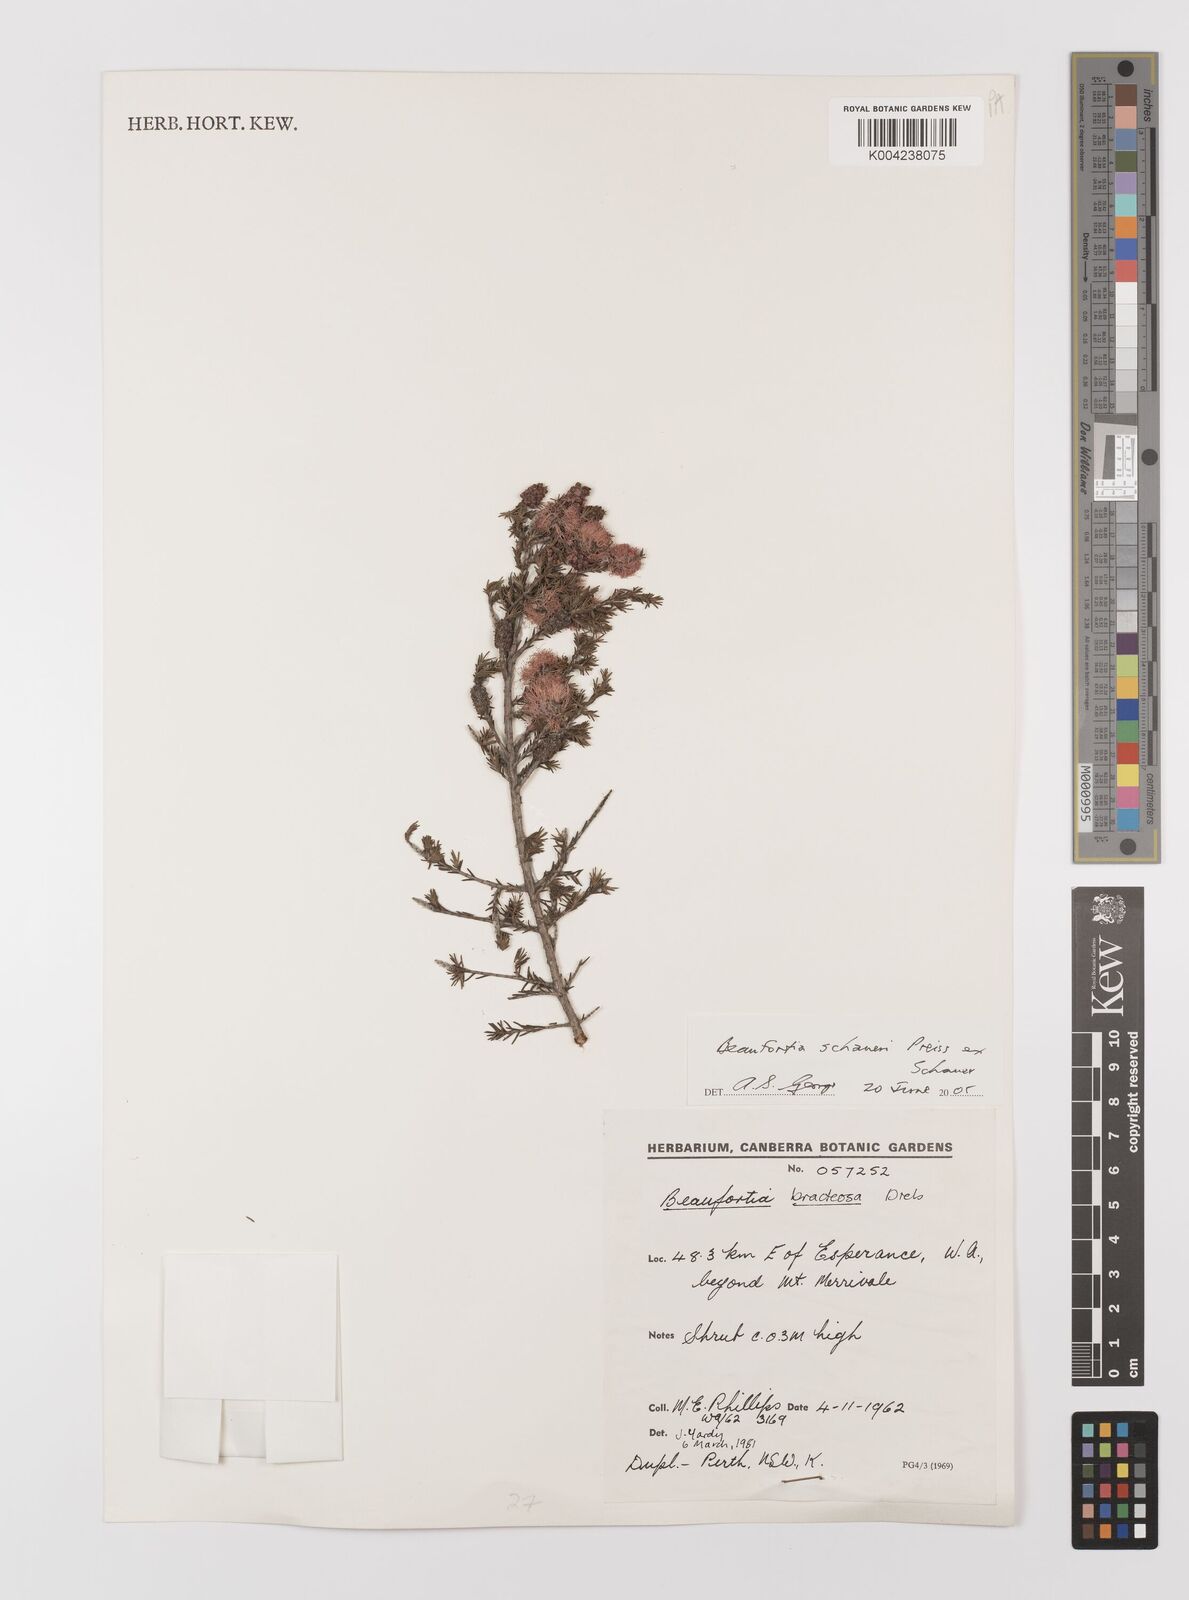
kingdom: Plantae
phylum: Tracheophyta
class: Magnoliopsida
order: Myrtales
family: Myrtaceae
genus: Melaleuca
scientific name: Melaleuca jonesii
